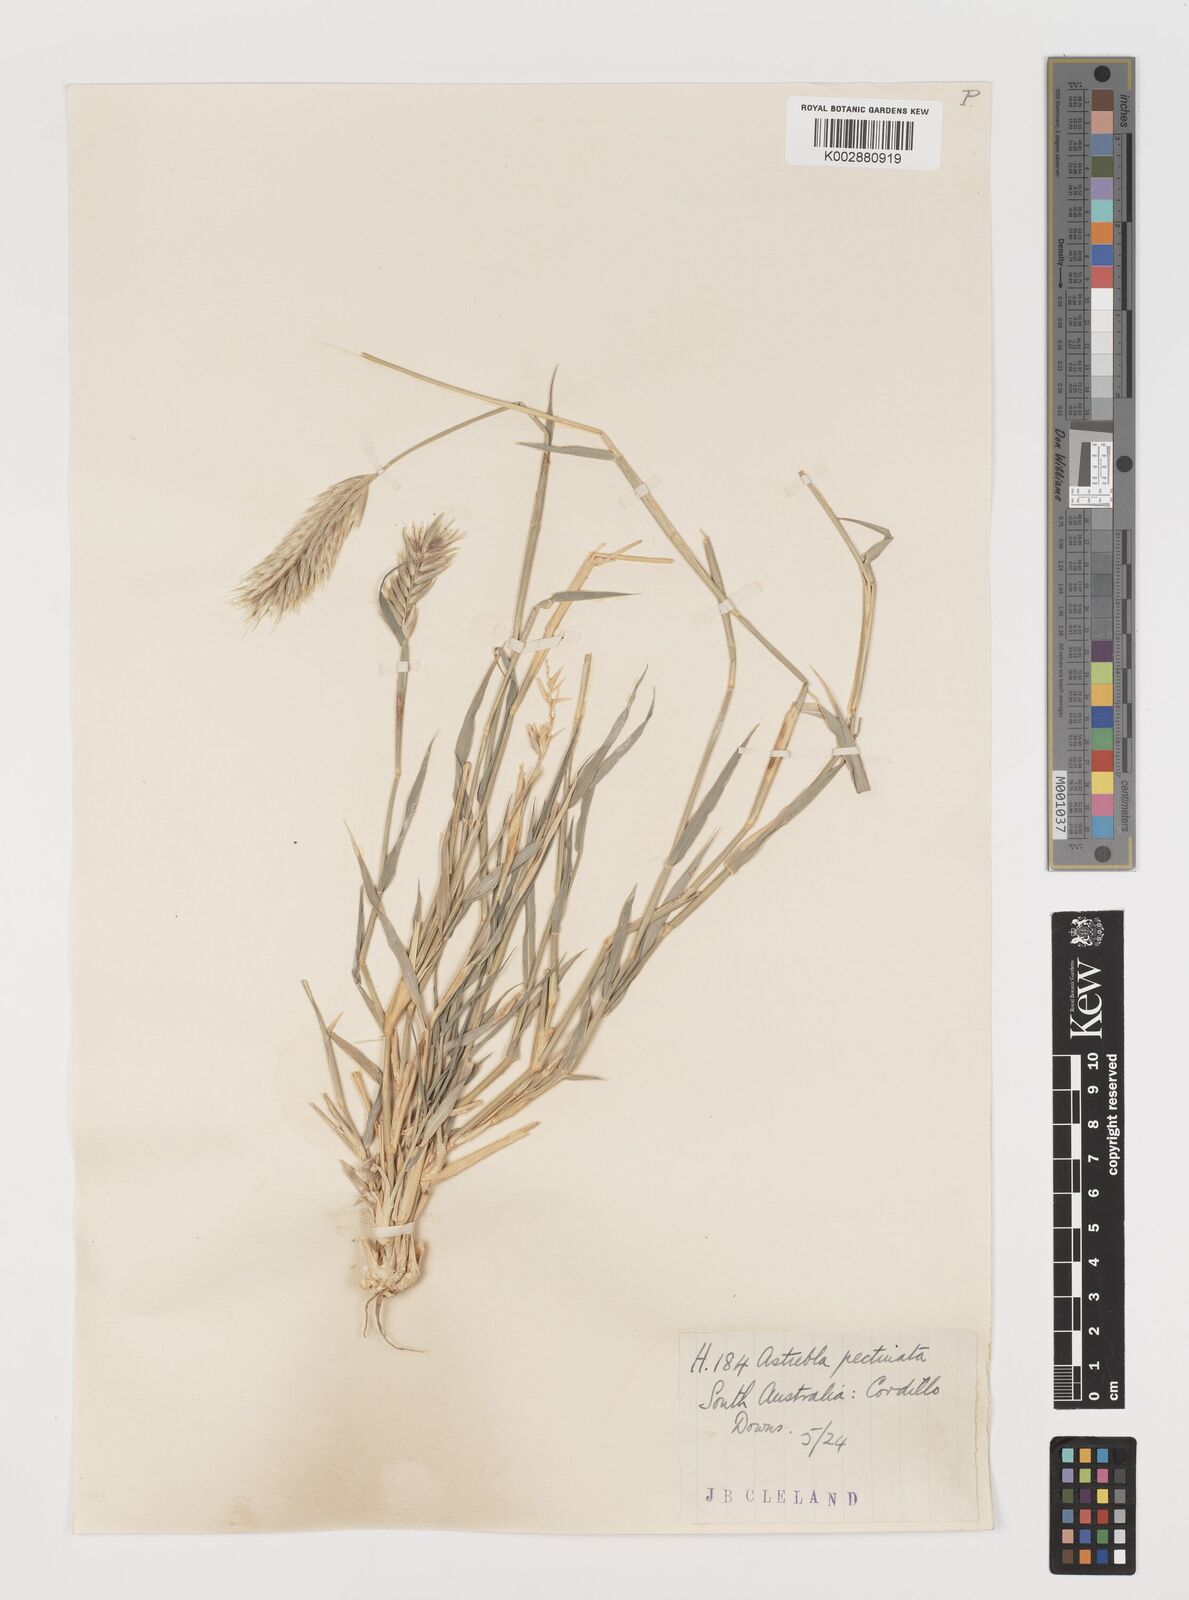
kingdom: Plantae
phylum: Tracheophyta
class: Liliopsida
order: Poales
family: Poaceae
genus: Astrebla
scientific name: Astrebla pectinata
